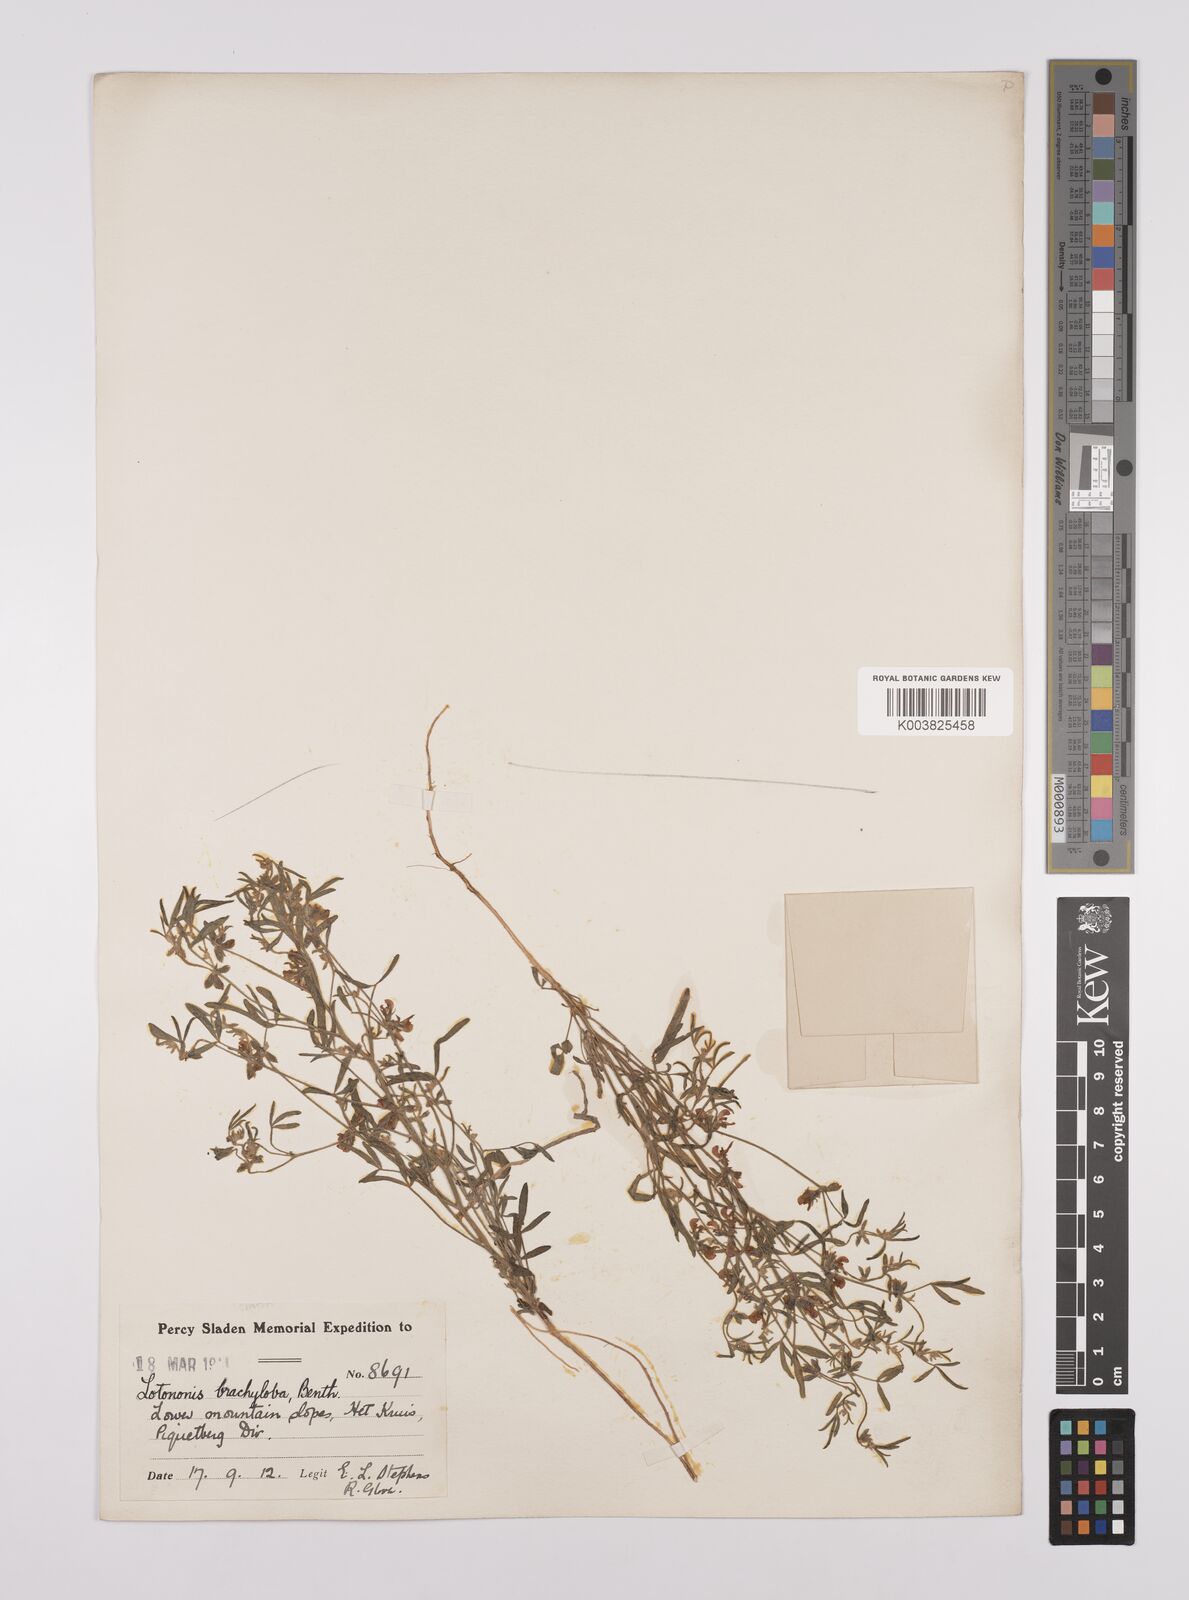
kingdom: Plantae
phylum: Tracheophyta
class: Magnoliopsida
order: Fabales
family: Fabaceae
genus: Lotononis
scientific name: Lotononis parviflora
